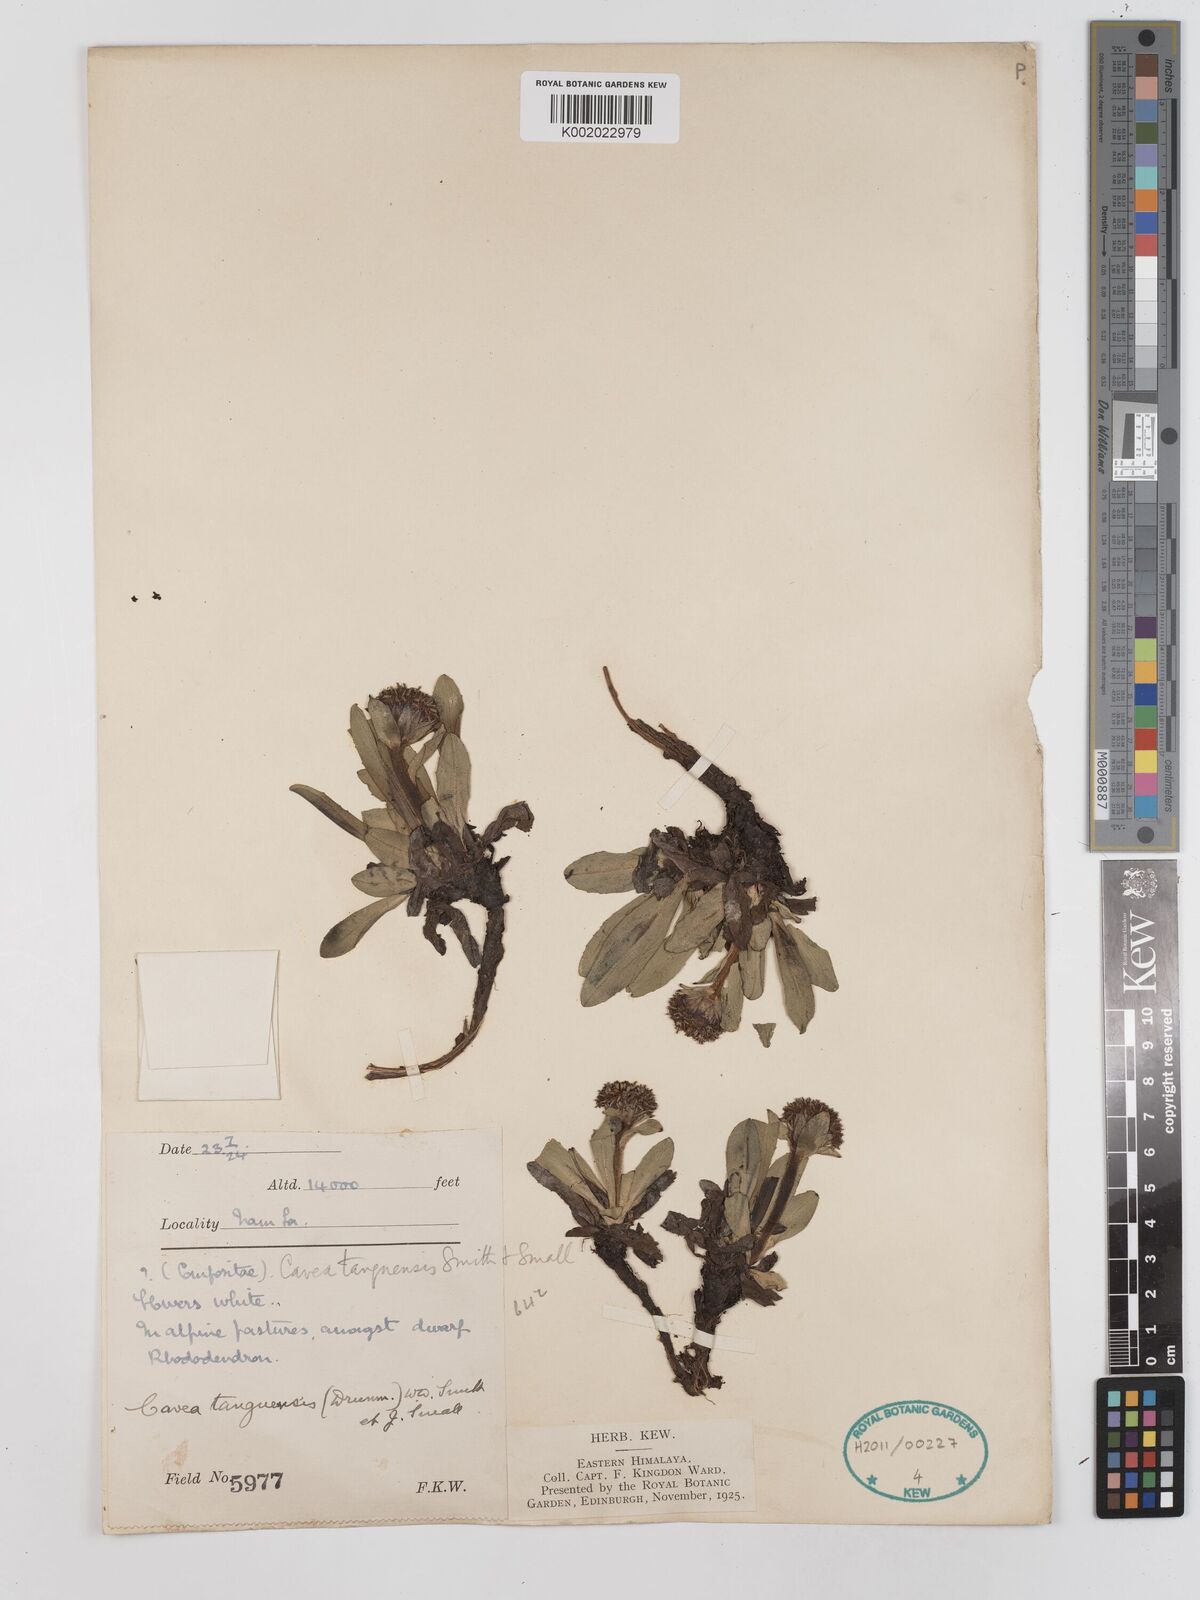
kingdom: Plantae
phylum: Tracheophyta
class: Magnoliopsida
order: Asterales
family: Asteraceae
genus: Cavea
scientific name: Cavea tanguensis
